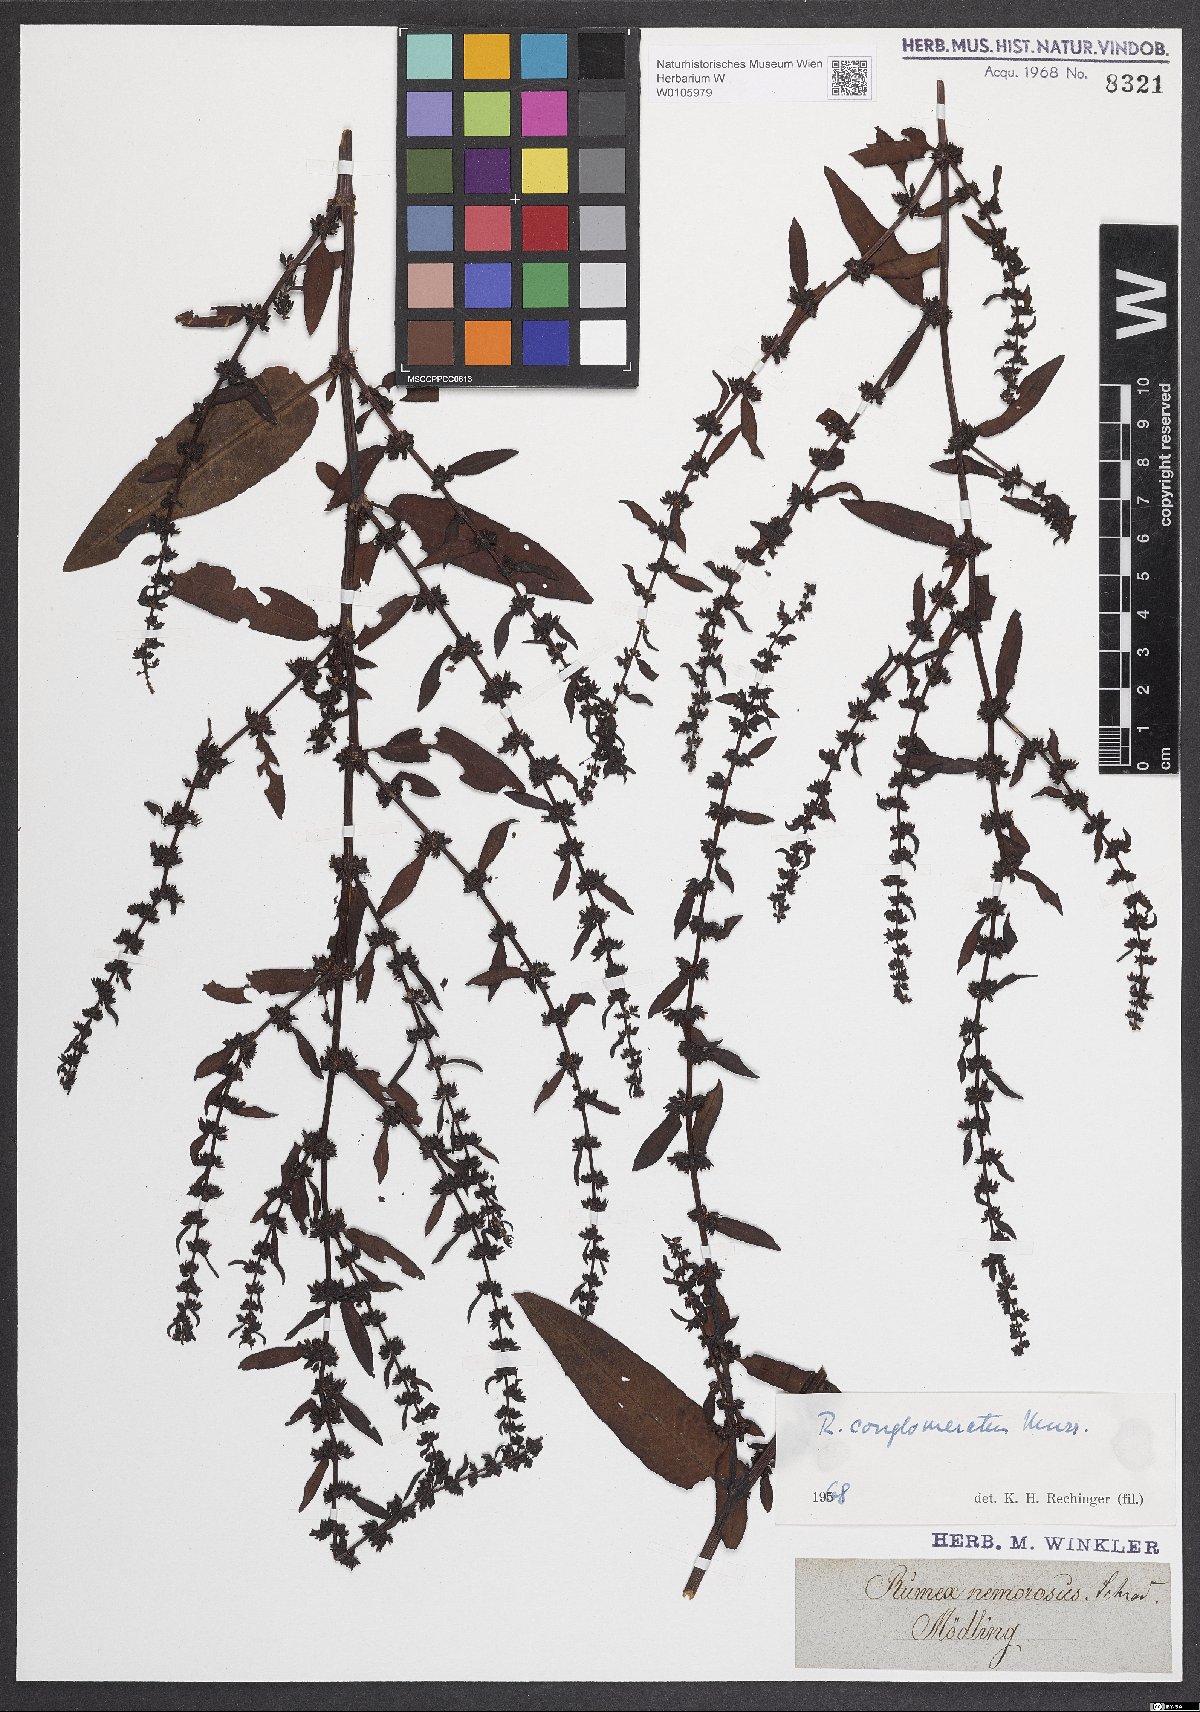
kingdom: Plantae
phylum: Tracheophyta
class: Magnoliopsida
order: Caryophyllales
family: Polygonaceae
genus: Rumex
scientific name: Rumex conglomeratus
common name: Clustered dock
